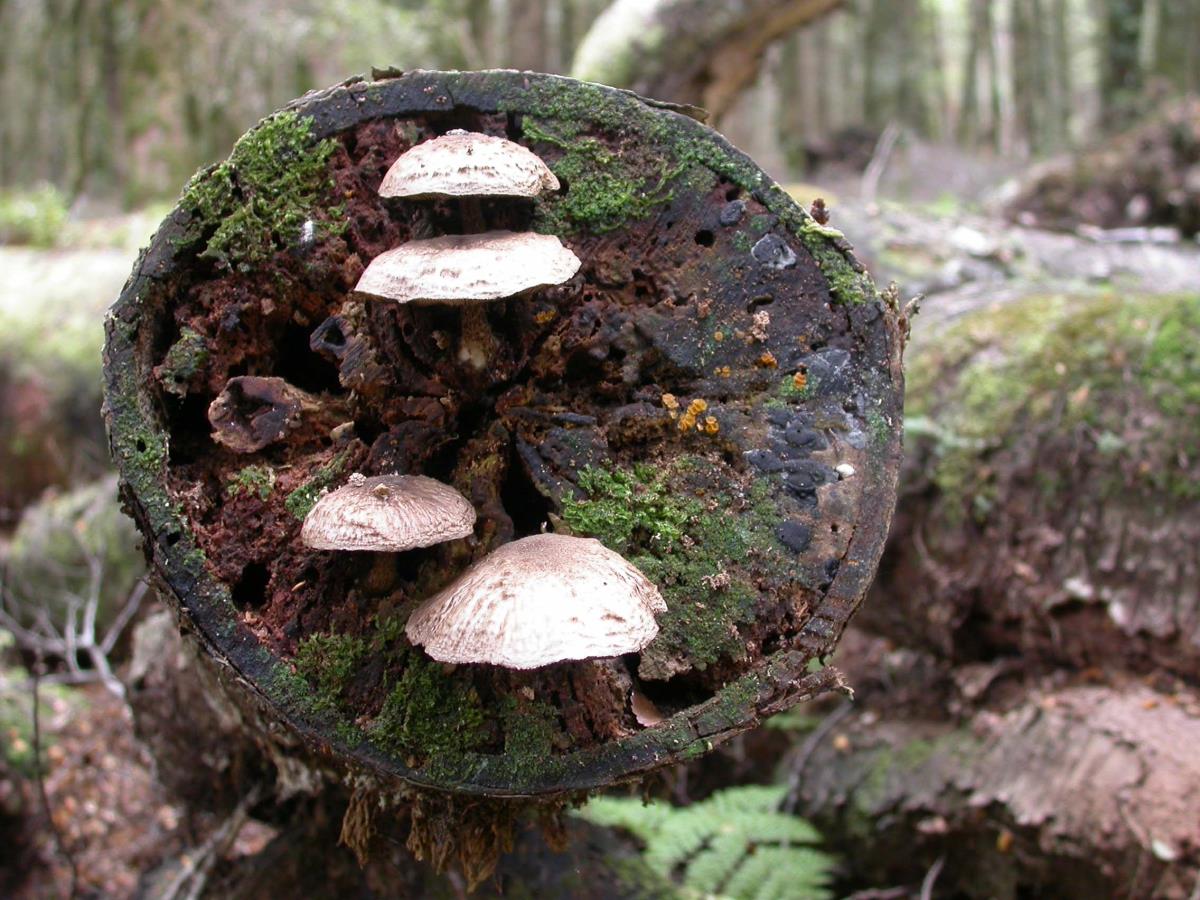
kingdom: Fungi
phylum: Basidiomycota
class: Agaricomycetes
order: Agaricales
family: Pluteaceae
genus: Pluteus
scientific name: Pluteus
